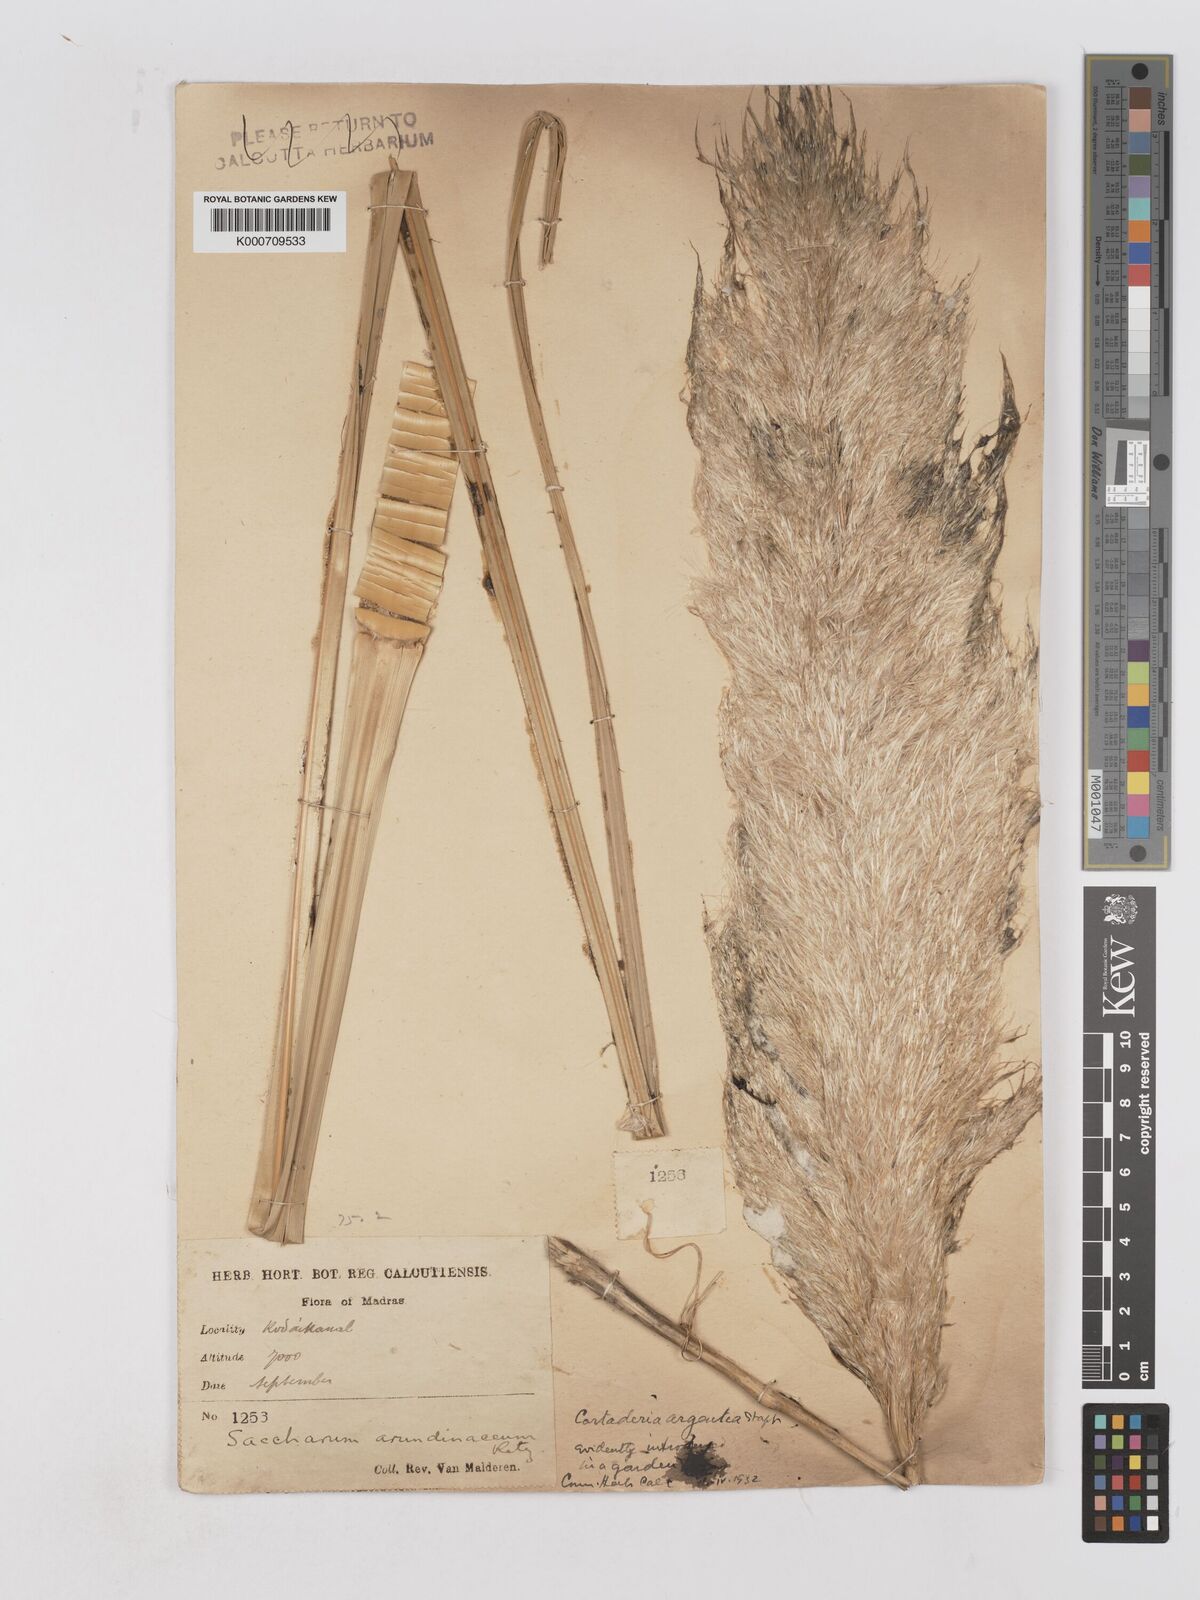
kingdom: Plantae
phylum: Tracheophyta
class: Liliopsida
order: Poales
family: Poaceae
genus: Cortaderia
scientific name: Cortaderia selloana
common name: Uruguayan pampas grass
